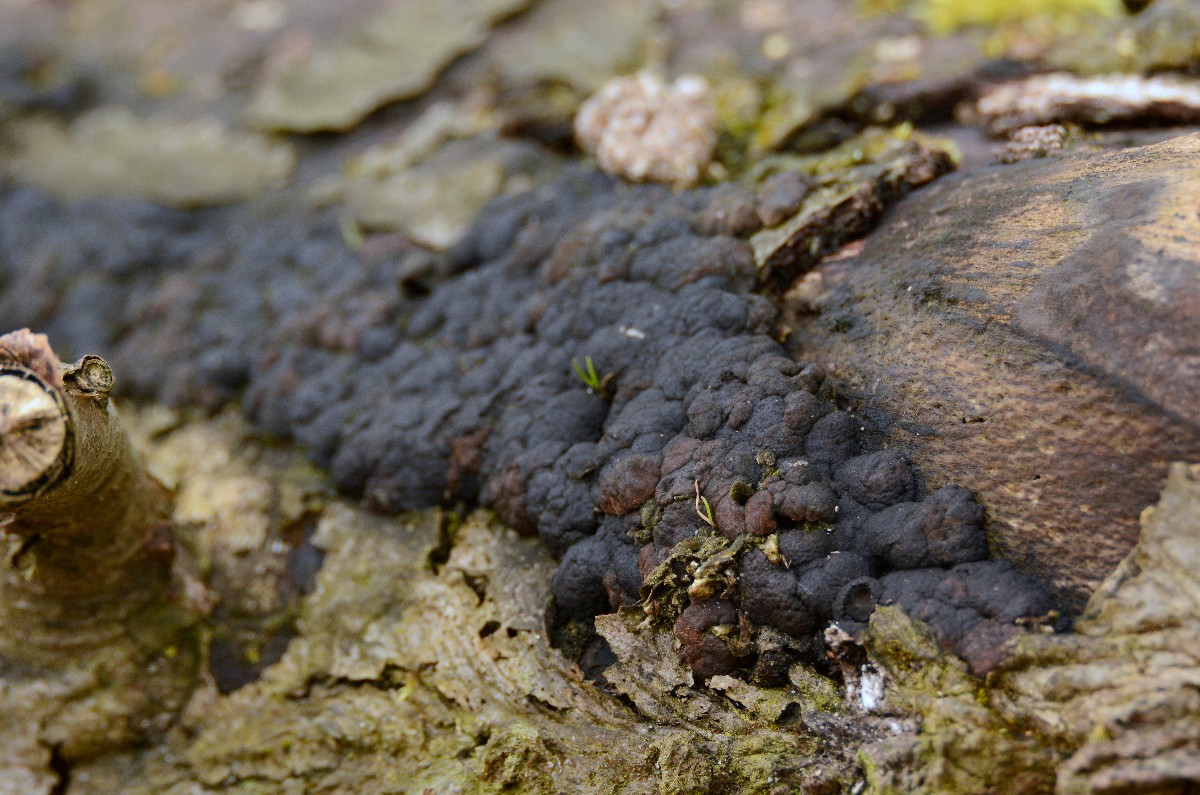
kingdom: Fungi
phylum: Ascomycota
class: Sordariomycetes
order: Xylariales
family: Hypoxylaceae
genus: Jackrogersella
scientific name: Jackrogersella cohaerens
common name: sammenflydende kulbær
